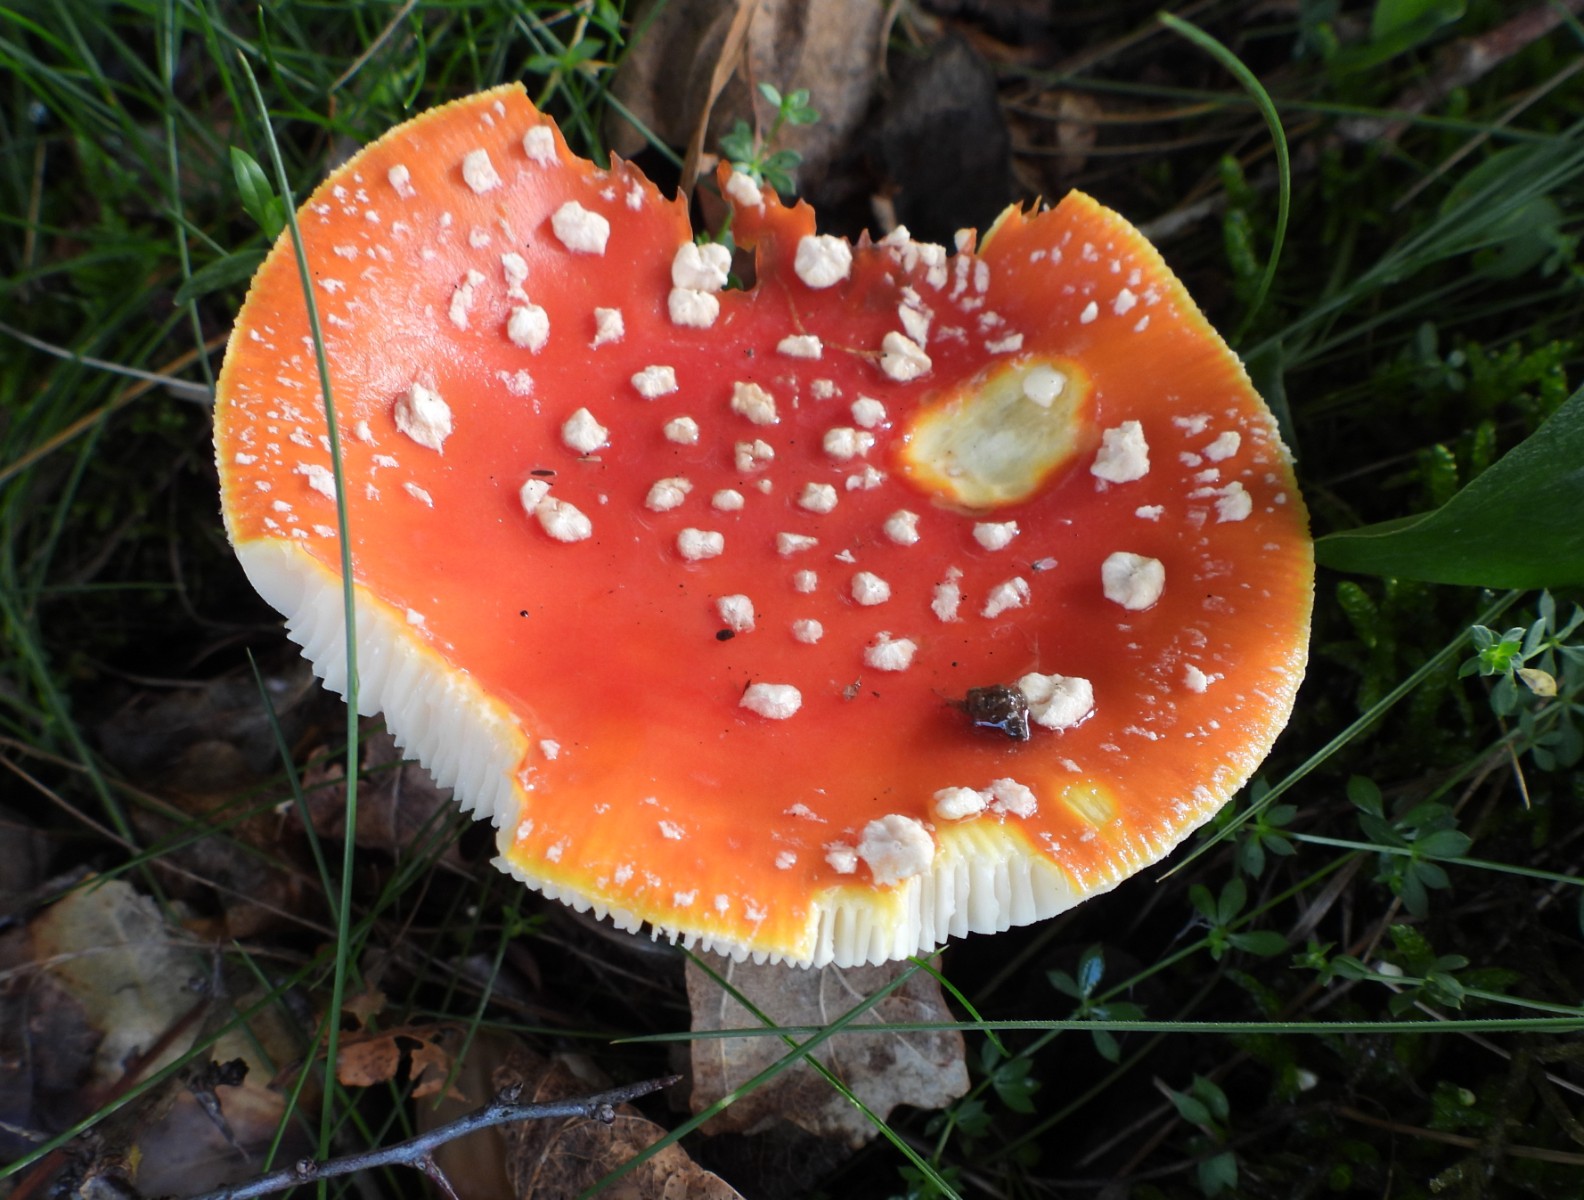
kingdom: Fungi
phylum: Basidiomycota
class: Agaricomycetes
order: Agaricales
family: Amanitaceae
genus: Amanita
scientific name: Amanita muscaria
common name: rød fluesvamp
